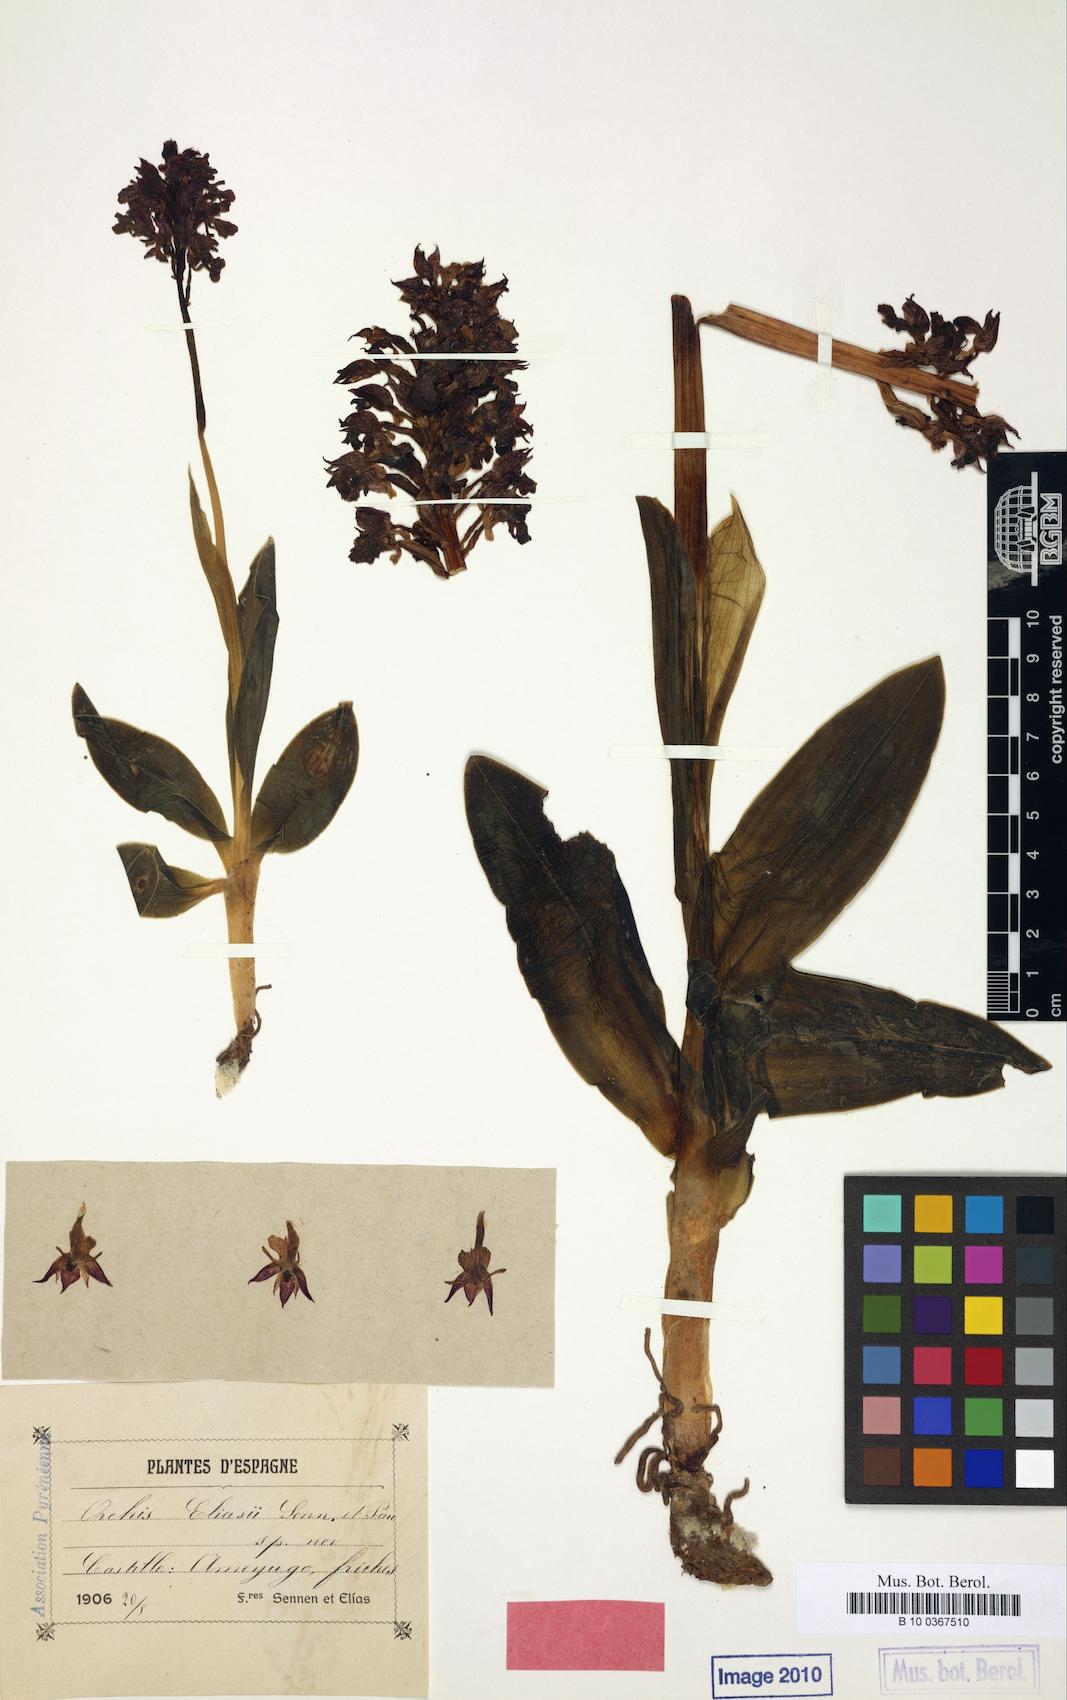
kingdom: Plantae
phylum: Tracheophyta
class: Liliopsida
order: Asparagales
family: Orchidaceae
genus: Orchis
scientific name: Orchis
